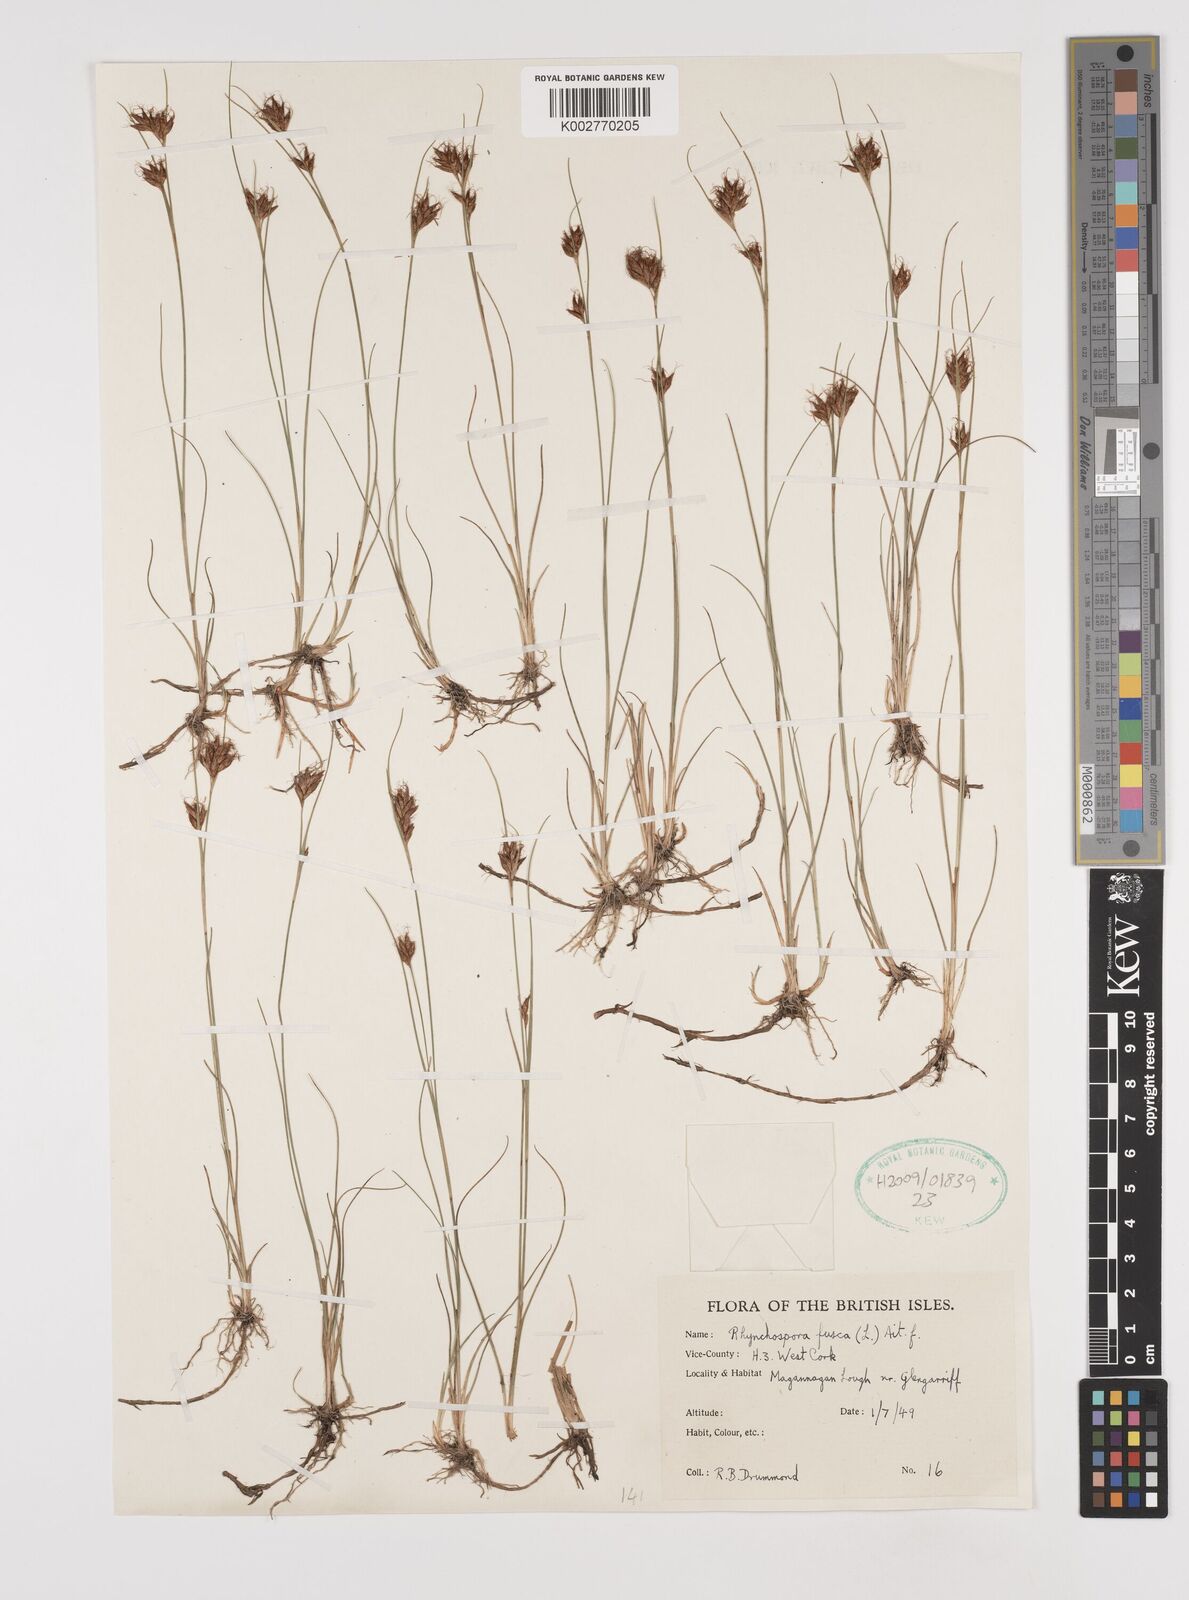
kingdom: Plantae
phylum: Tracheophyta
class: Liliopsida
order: Poales
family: Cyperaceae
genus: Rhynchospora
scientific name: Rhynchospora fusca
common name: Brown beak-sedge
